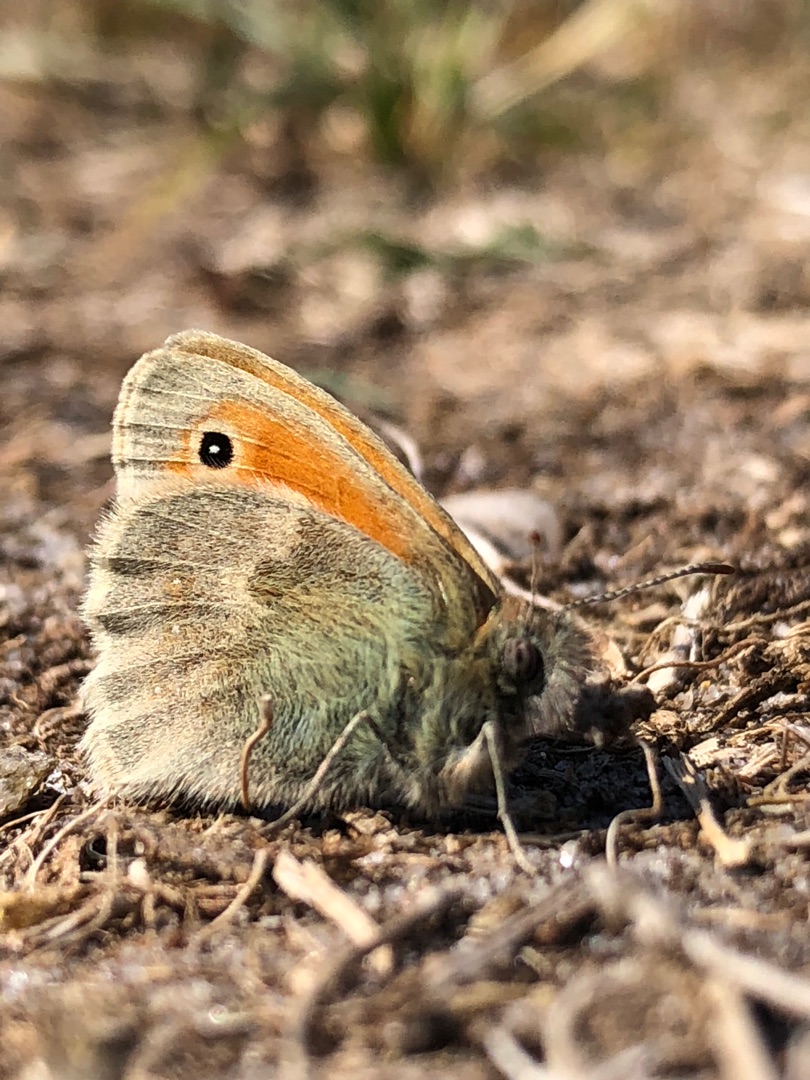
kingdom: Animalia
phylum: Arthropoda
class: Insecta
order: Lepidoptera
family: Nymphalidae
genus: Coenonympha
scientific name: Coenonympha pamphilus
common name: Okkergul randøje
